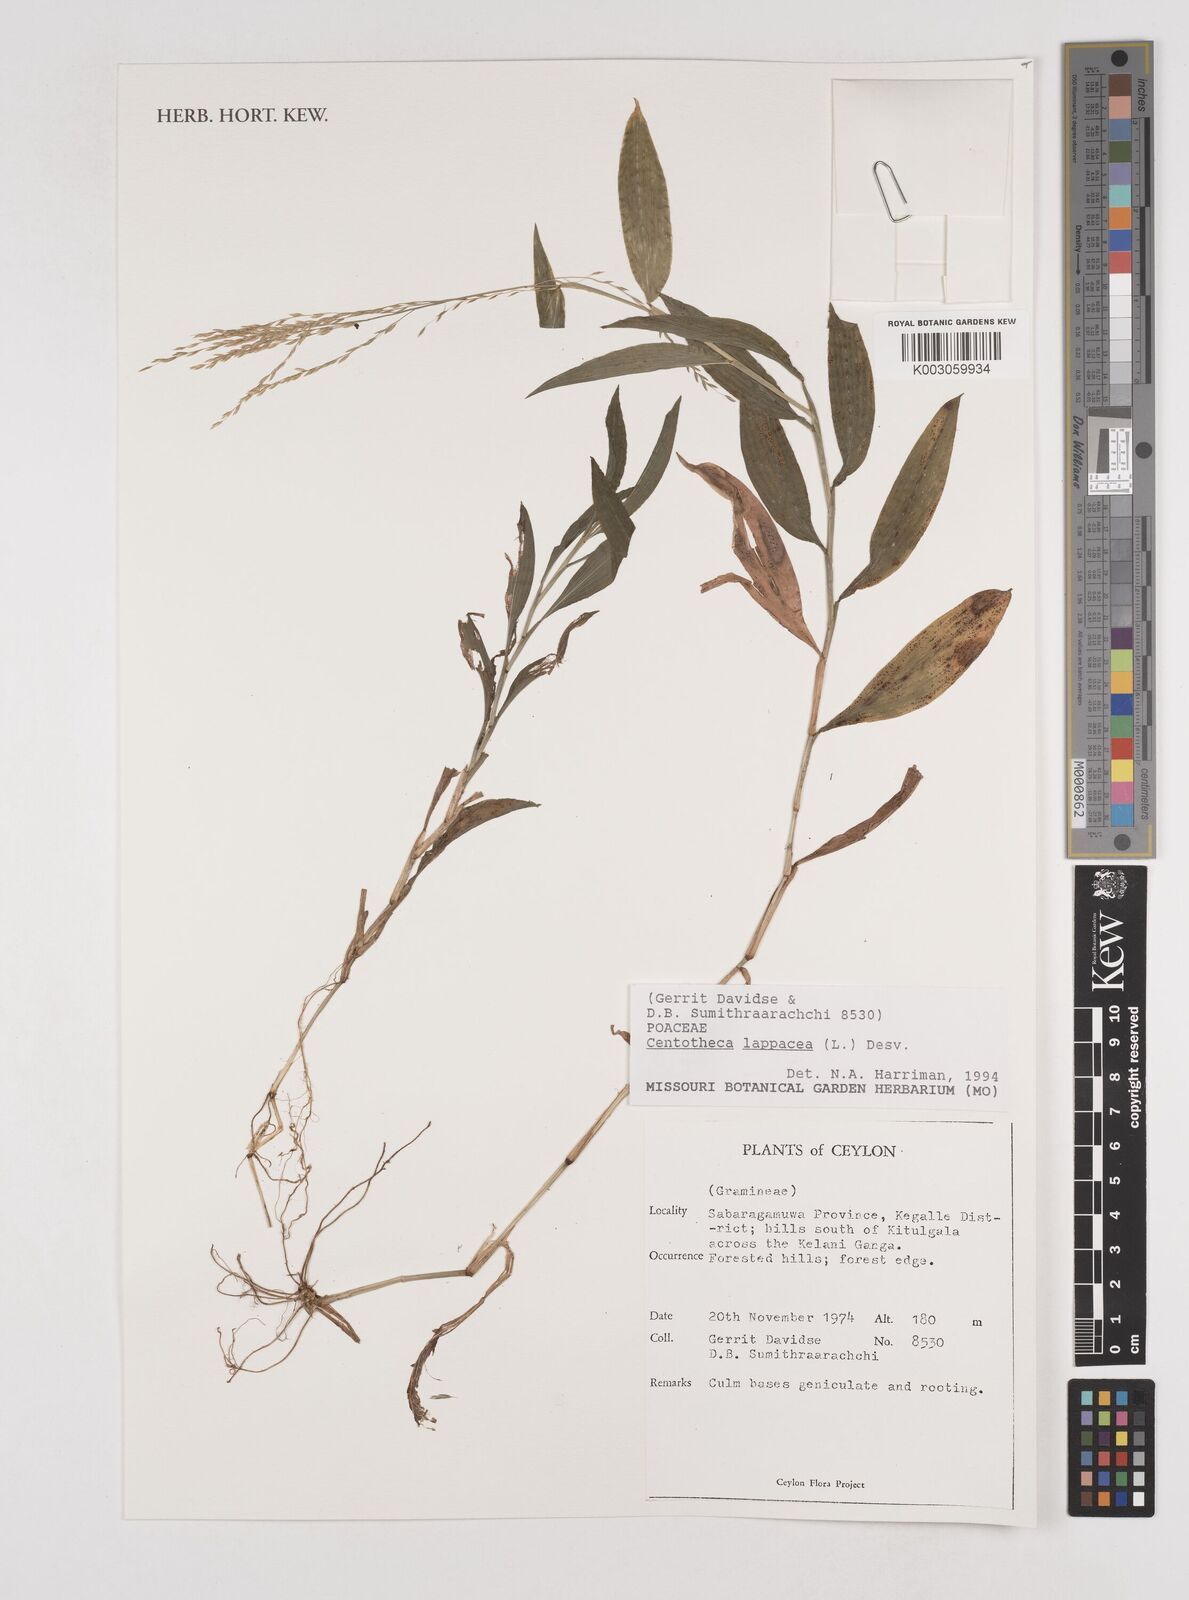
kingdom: Plantae
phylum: Tracheophyta
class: Liliopsida
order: Poales
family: Poaceae
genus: Centotheca
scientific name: Centotheca lappacea
